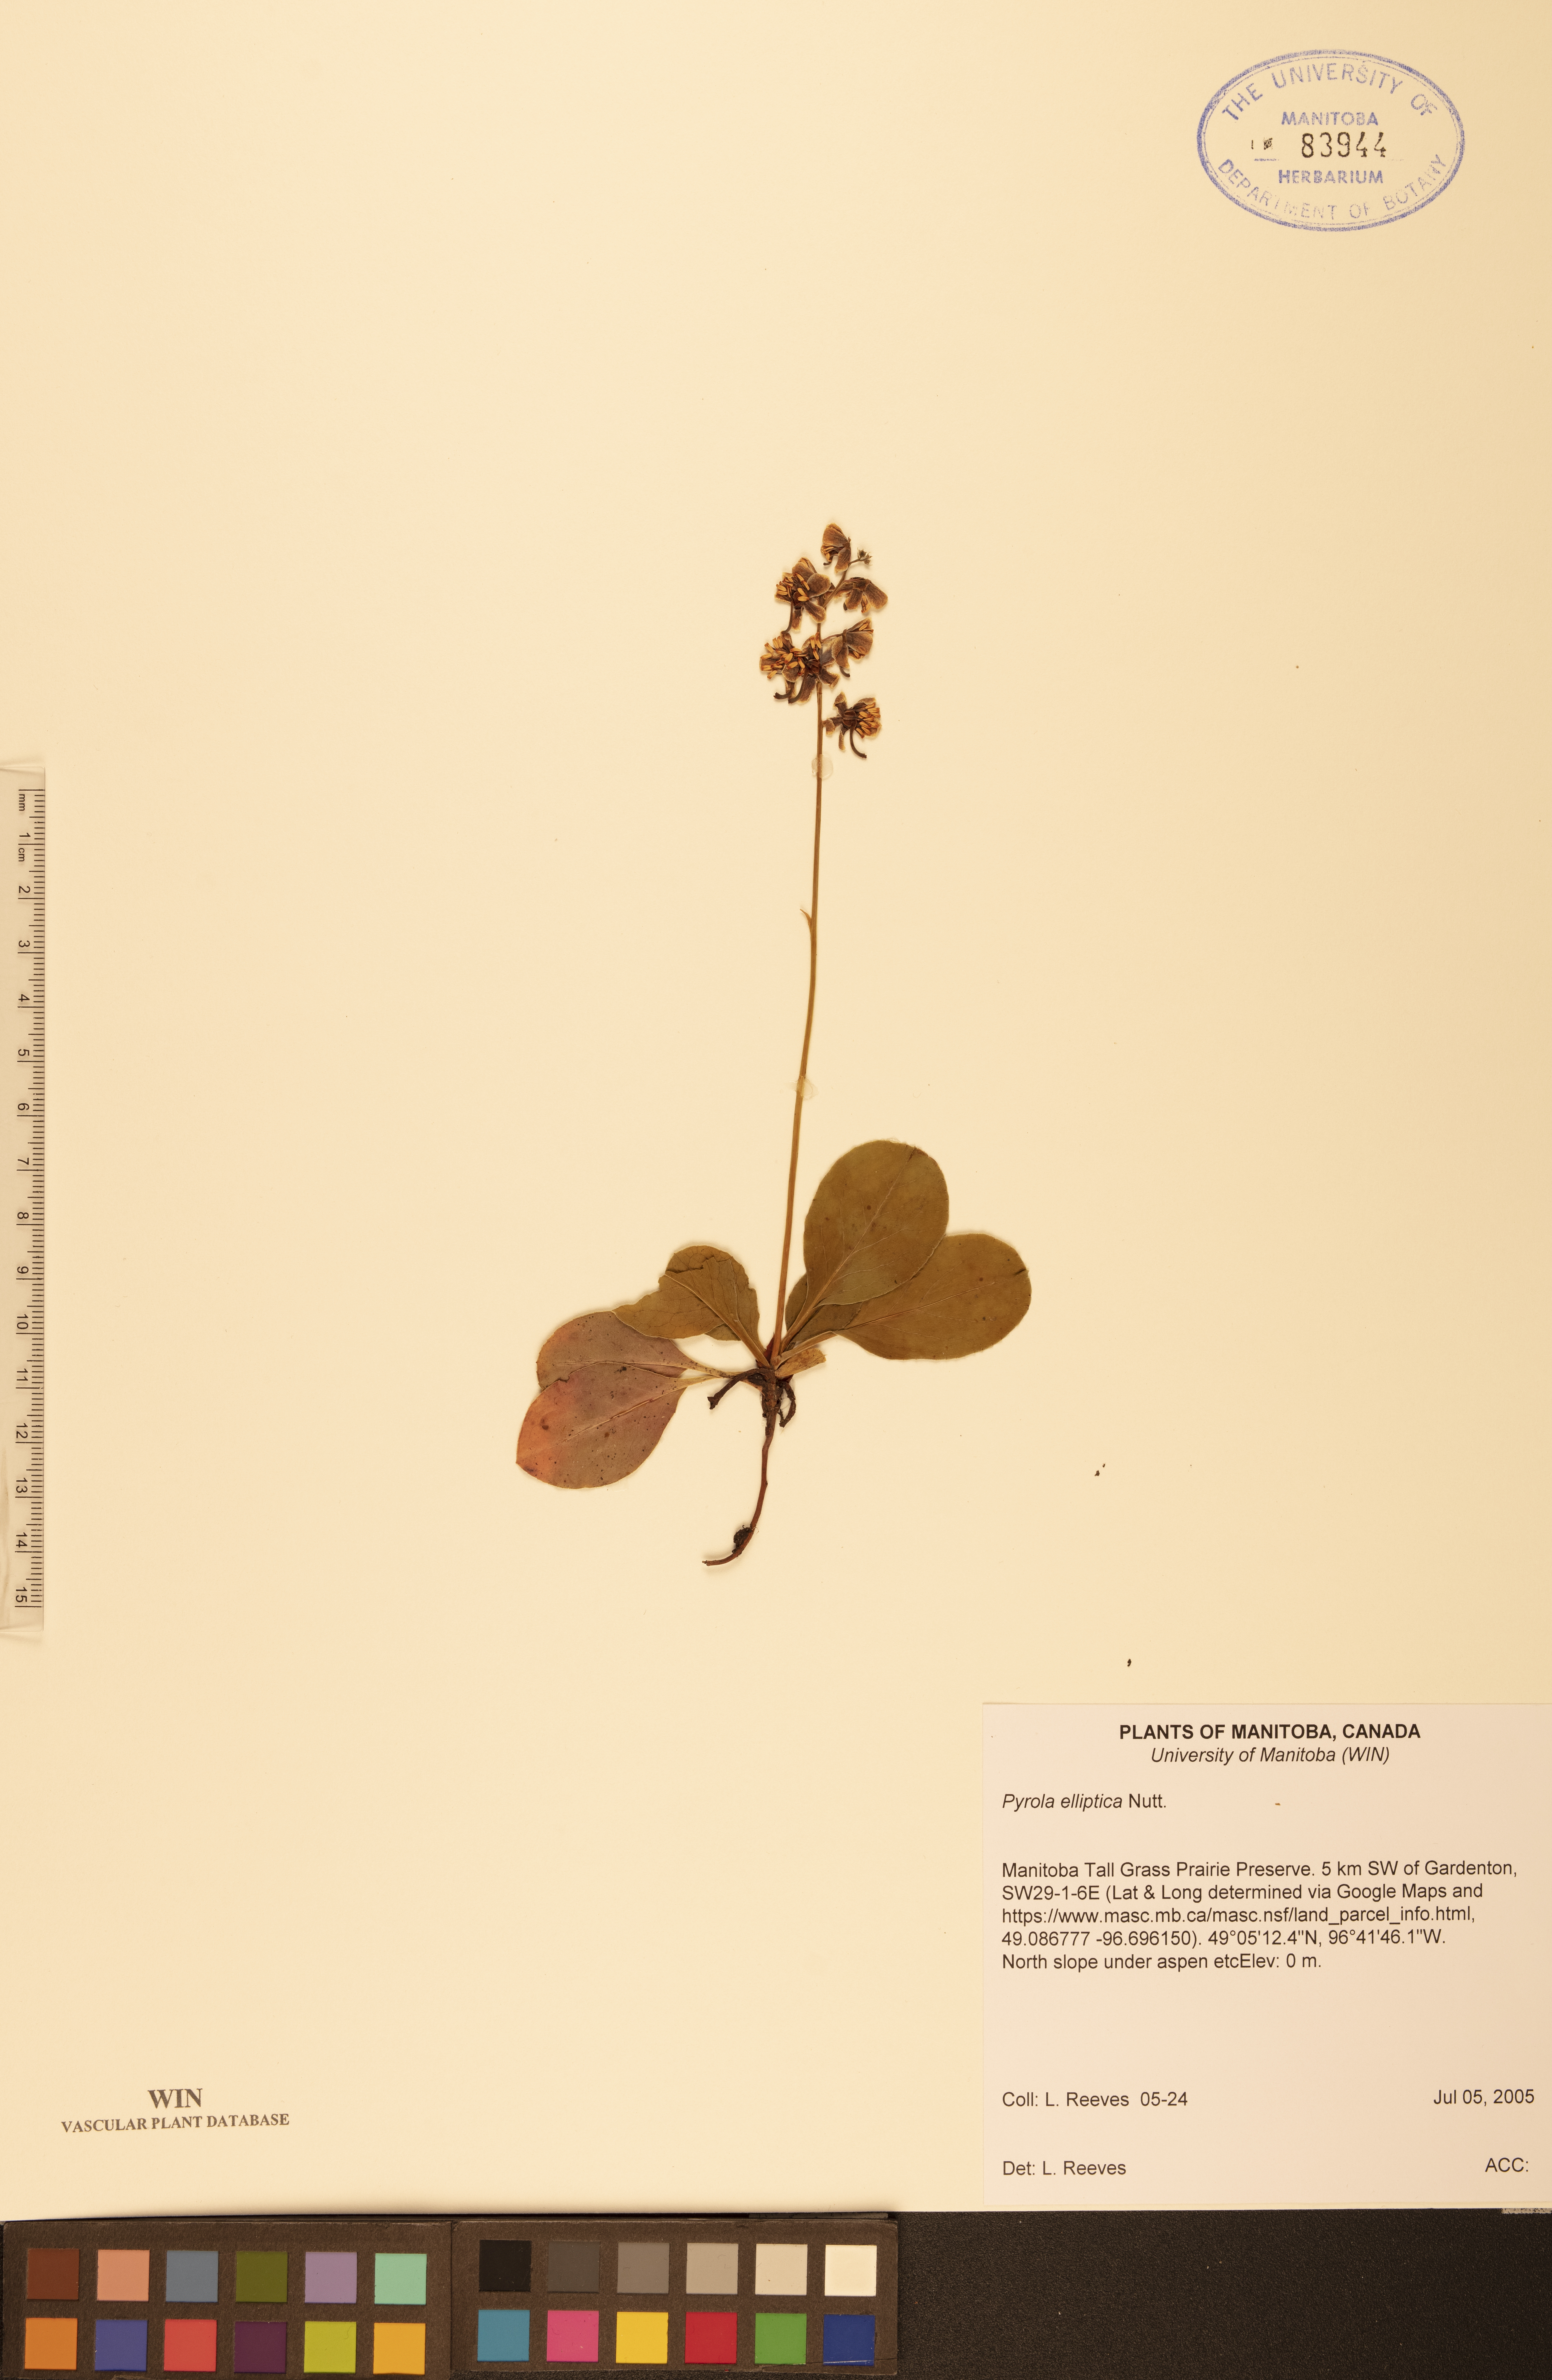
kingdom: Plantae
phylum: Tracheophyta
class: Magnoliopsida
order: Ericales
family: Ericaceae
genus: Pyrola
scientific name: Pyrola elliptica
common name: Shinleaf
